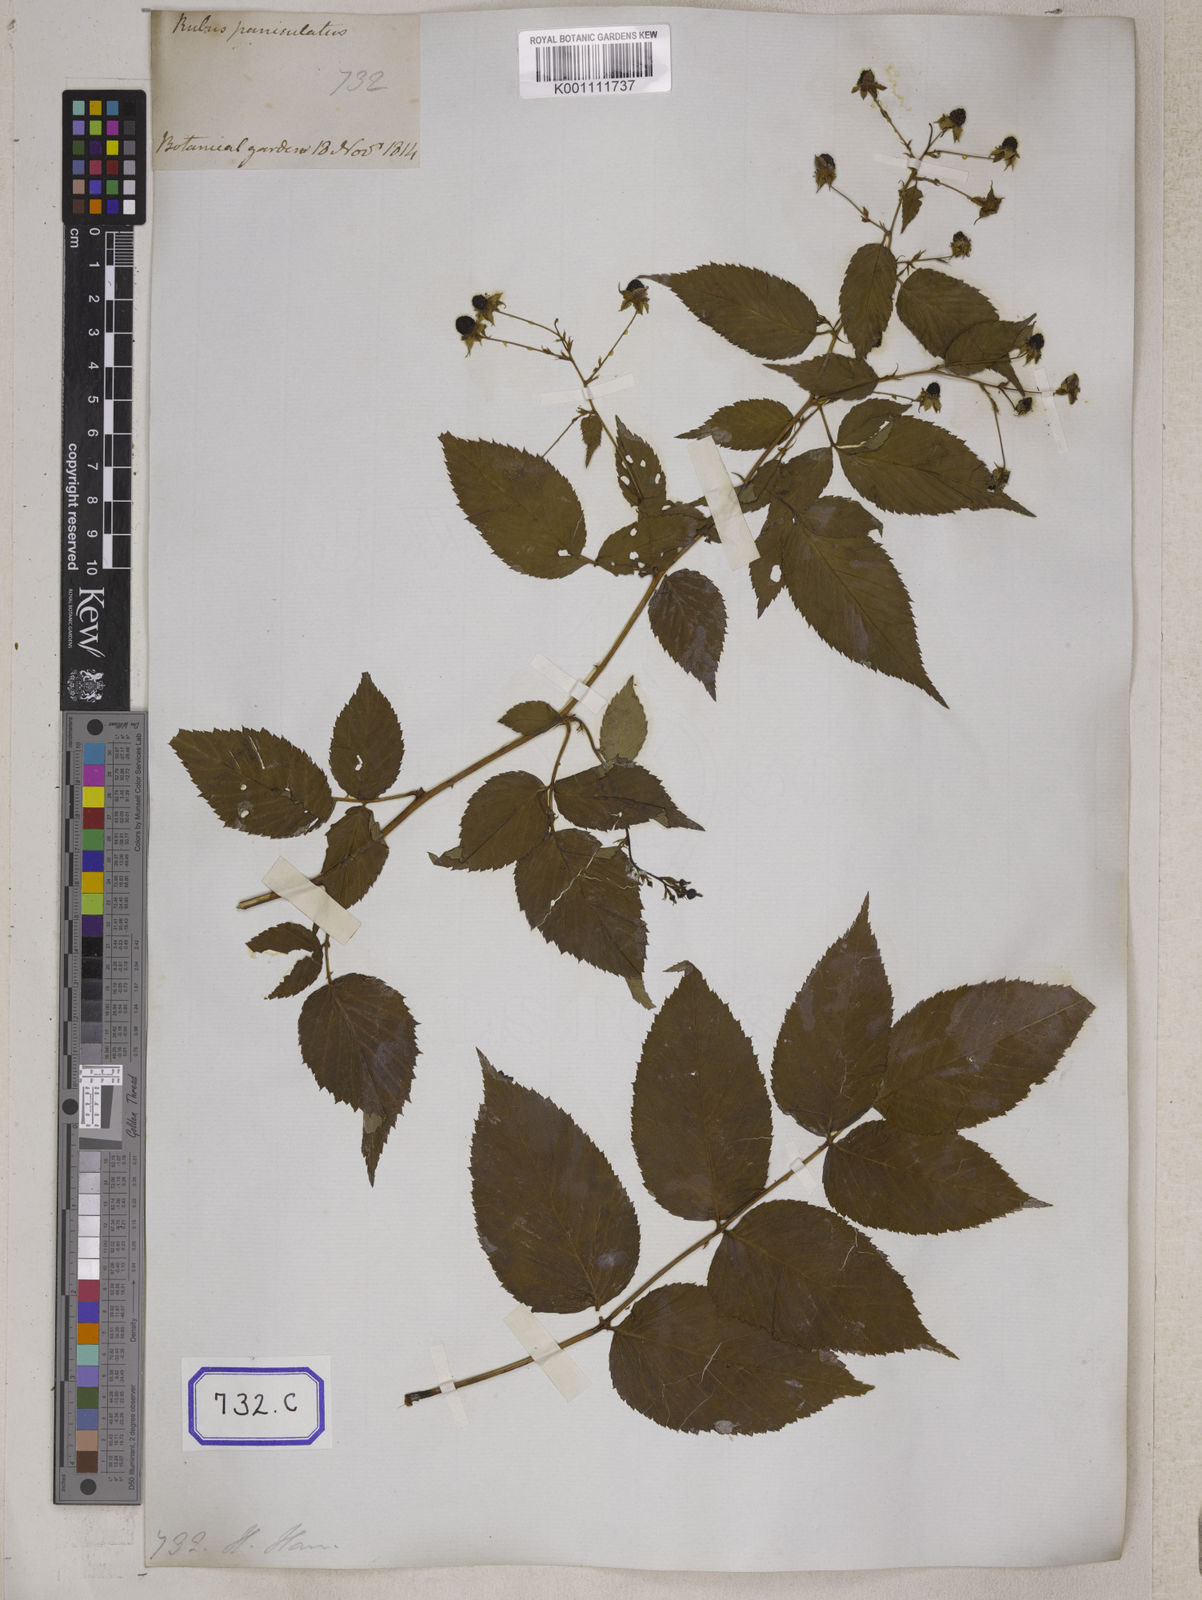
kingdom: Plantae
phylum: Tracheophyta
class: Magnoliopsida
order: Rosales
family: Rosaceae
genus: Rubus
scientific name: Rubus parvifolius
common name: Threeleaf blackberry
